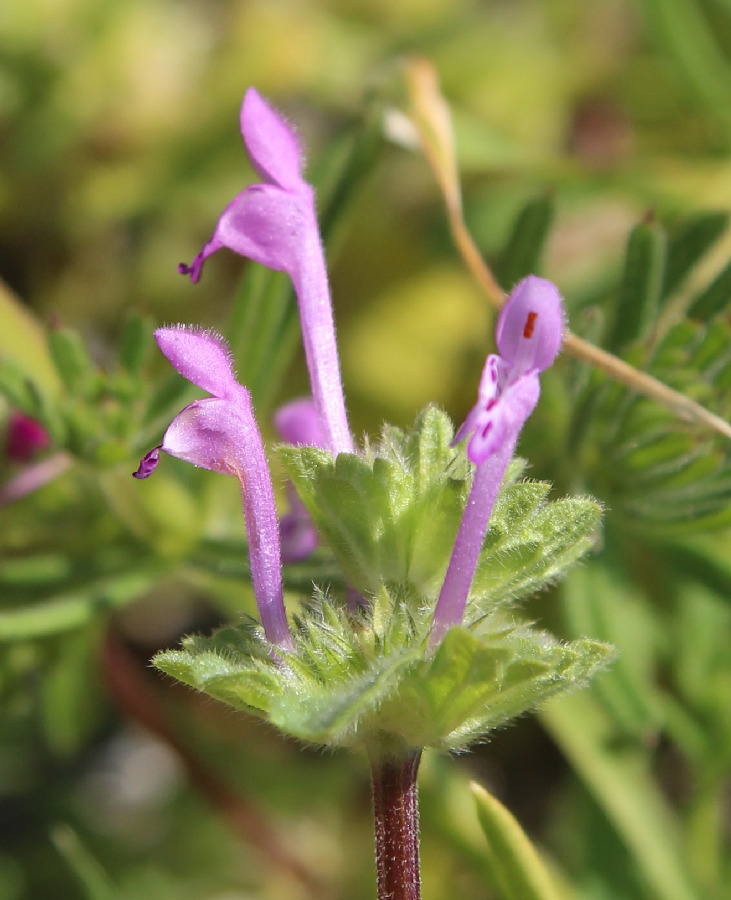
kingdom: Plantae
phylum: Tracheophyta
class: Magnoliopsida
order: Lamiales
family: Lamiaceae
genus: Lamium
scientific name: Lamium amplexicaule
